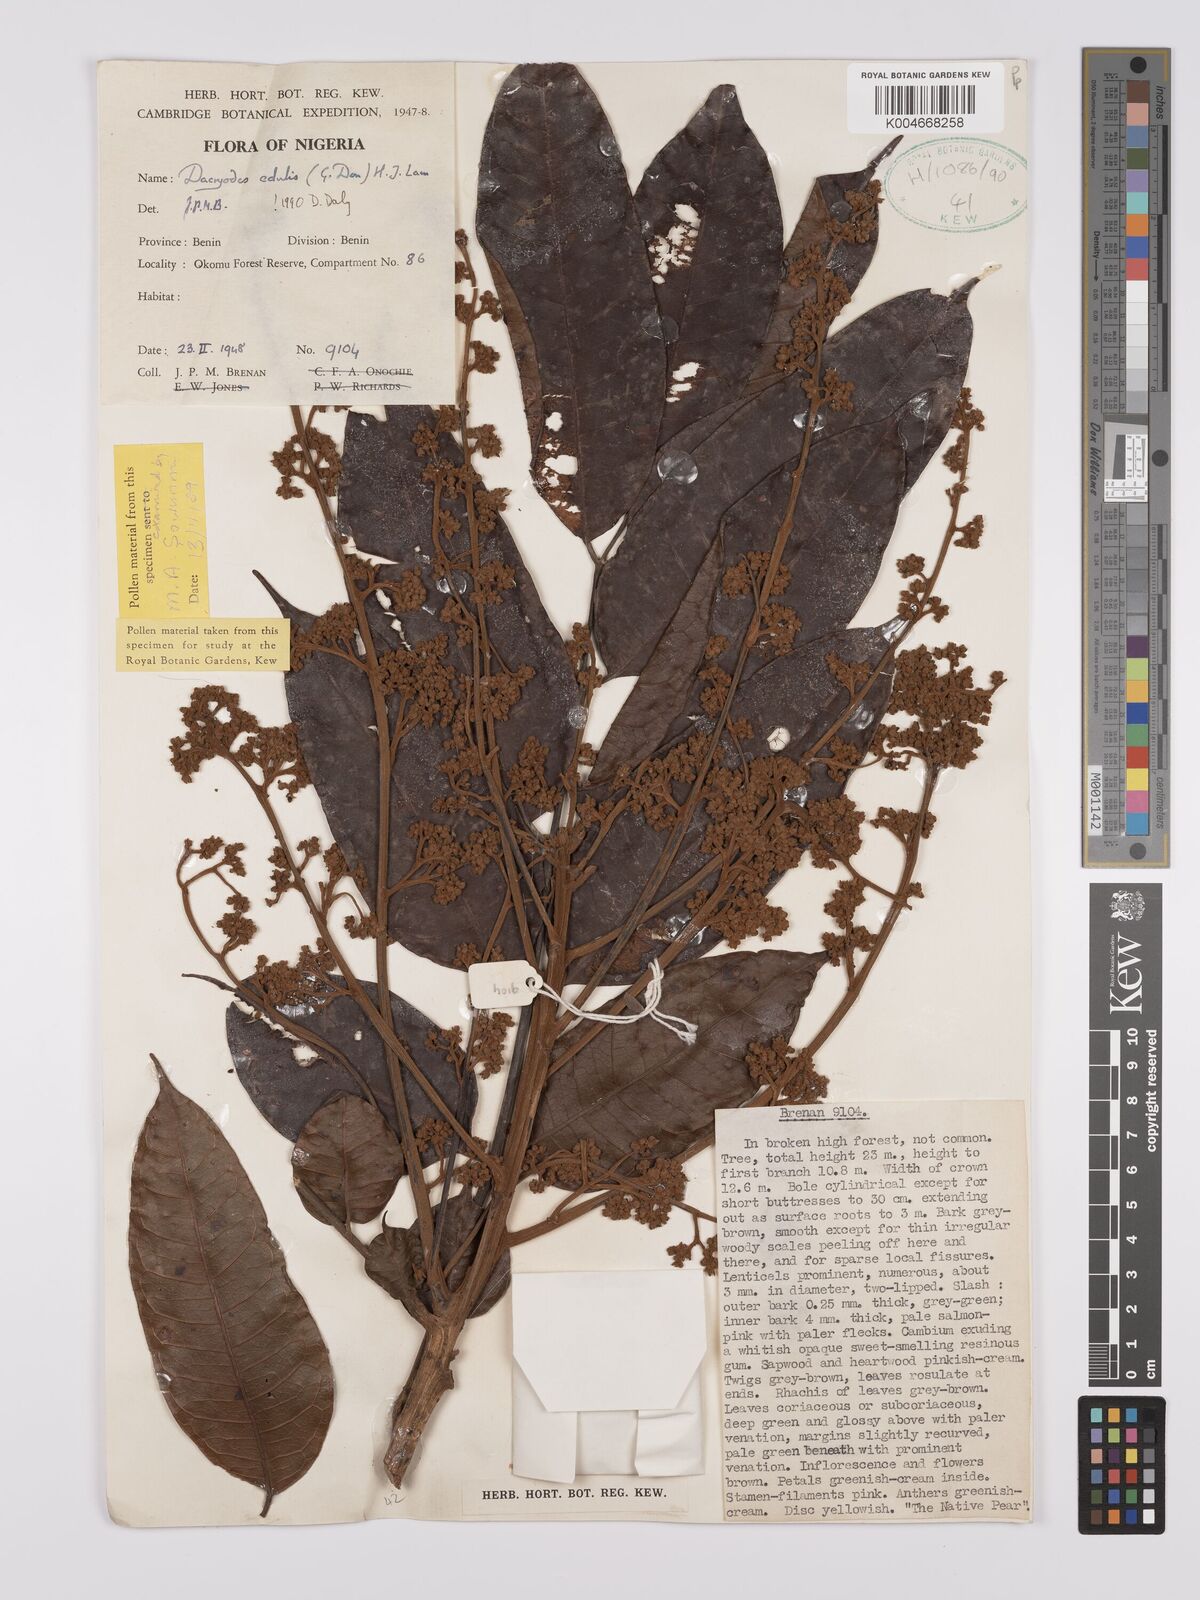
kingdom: Plantae
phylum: Tracheophyta
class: Magnoliopsida
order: Sapindales
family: Burseraceae
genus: Pachylobus
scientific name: Pachylobus edulis
